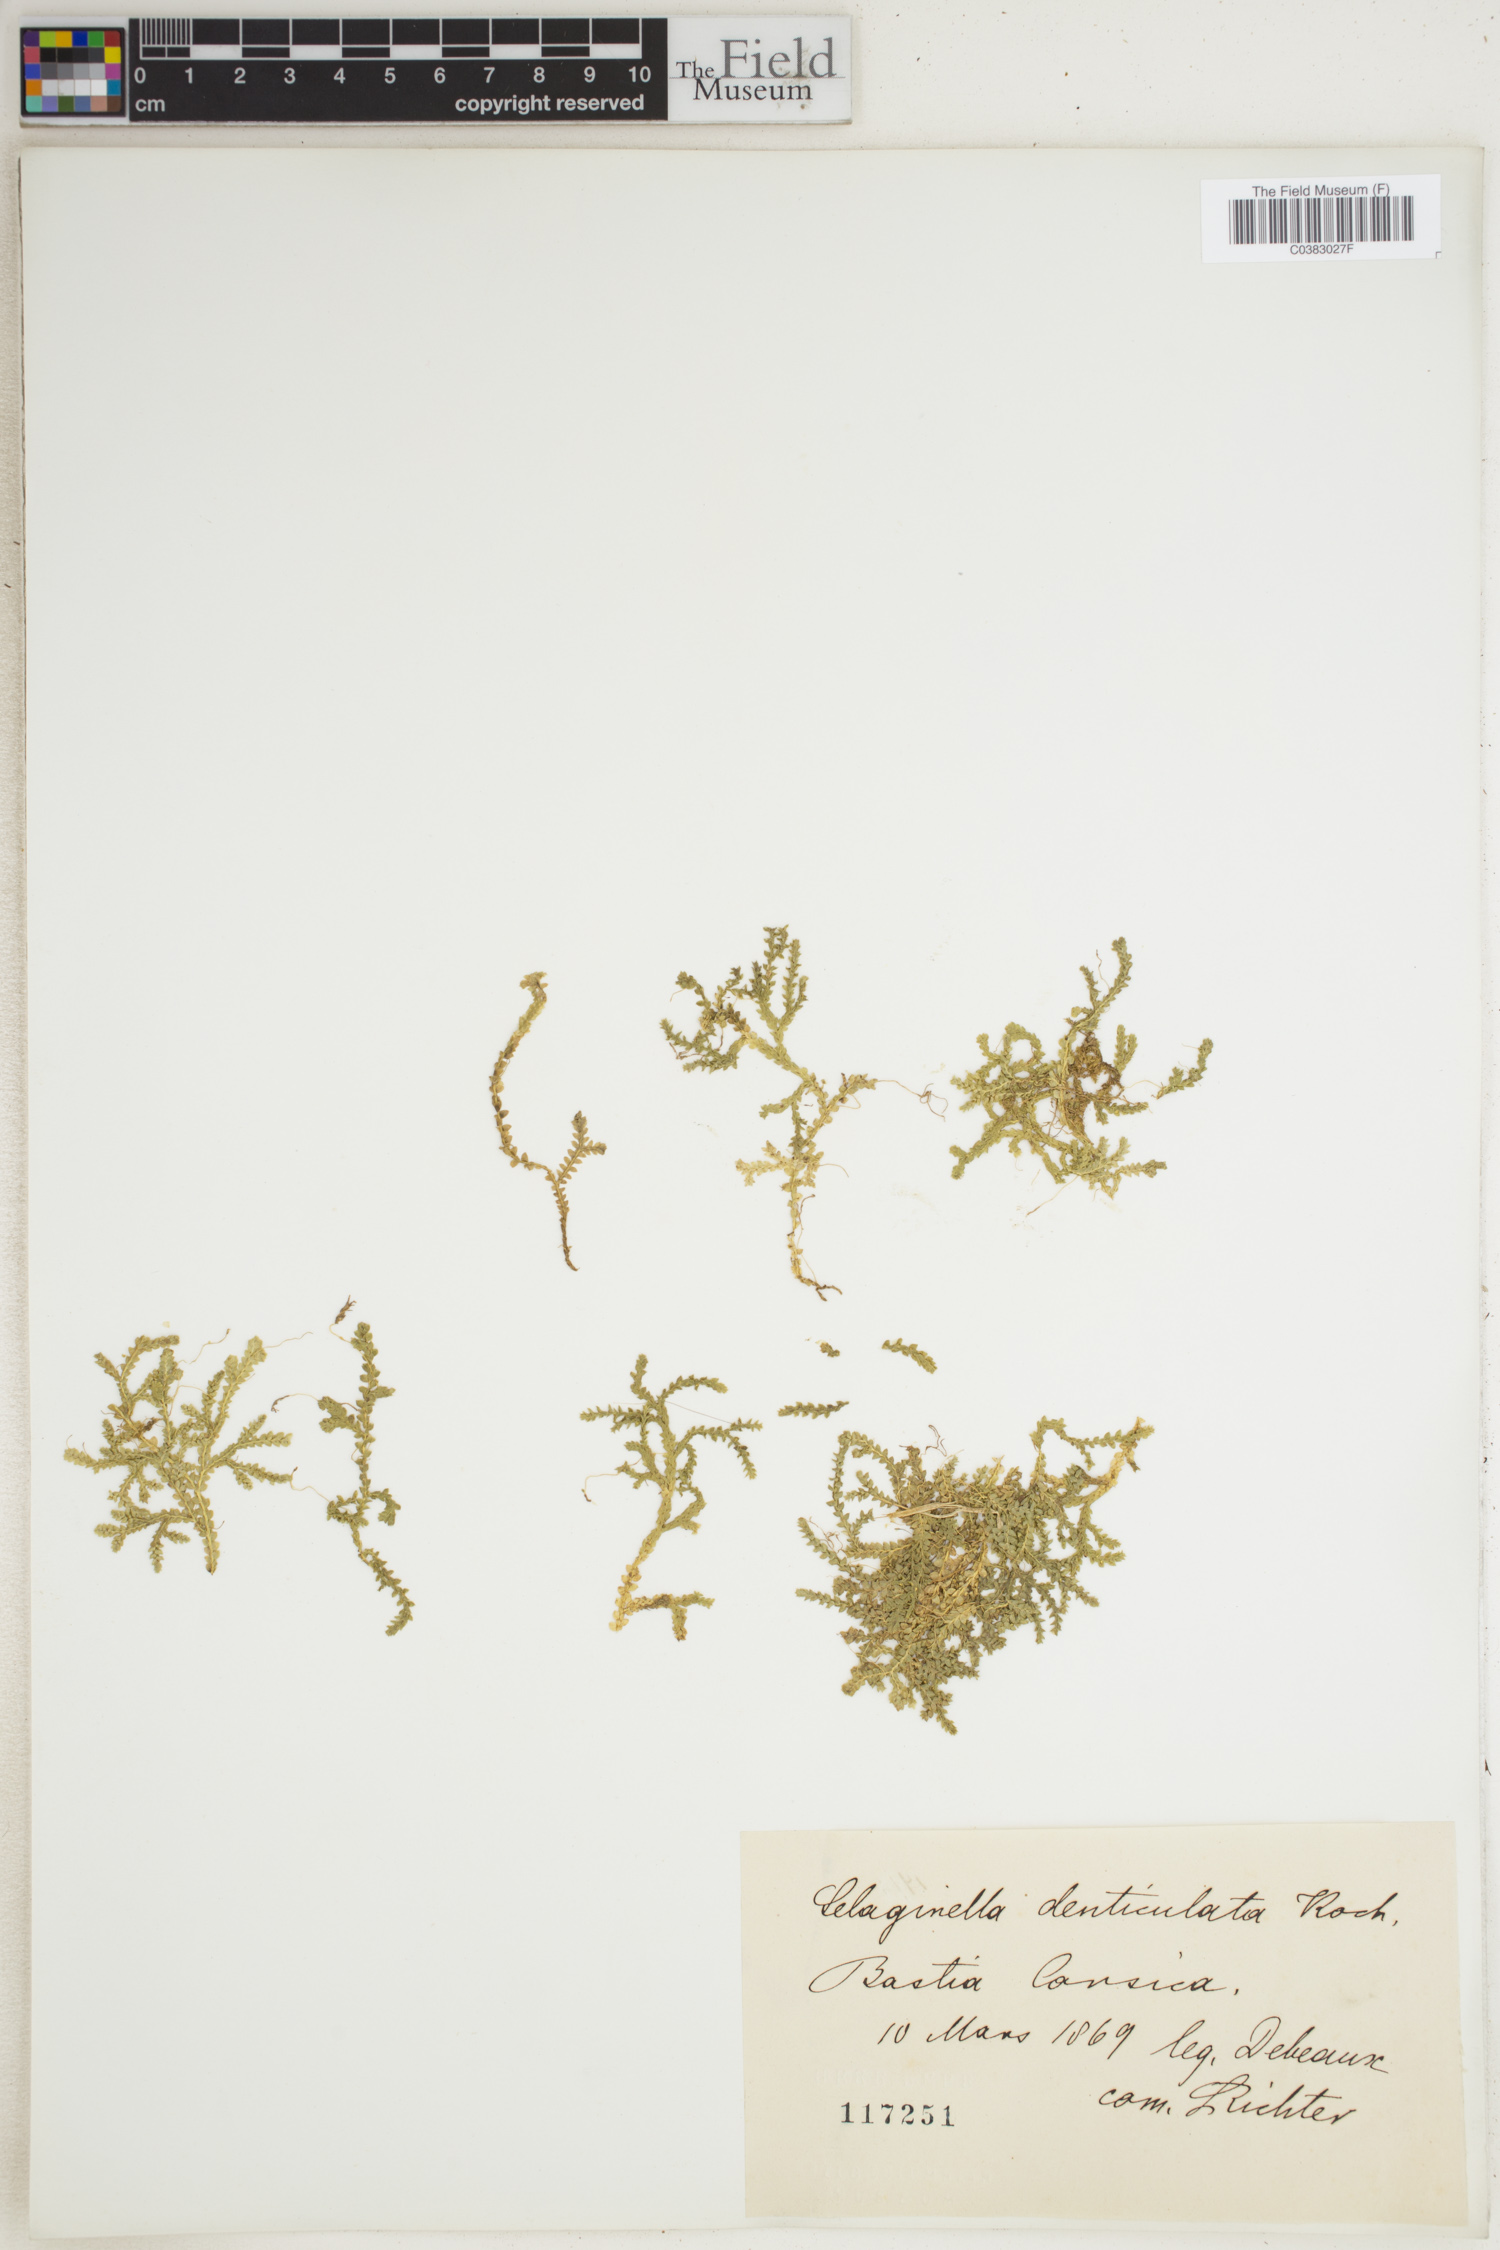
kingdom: Plantae
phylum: Tracheophyta
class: Lycopodiopsida
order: Selaginellales
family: Selaginellaceae
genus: Selaginella
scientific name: Selaginella denticulata
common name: Toothed-leaved clubmoss
